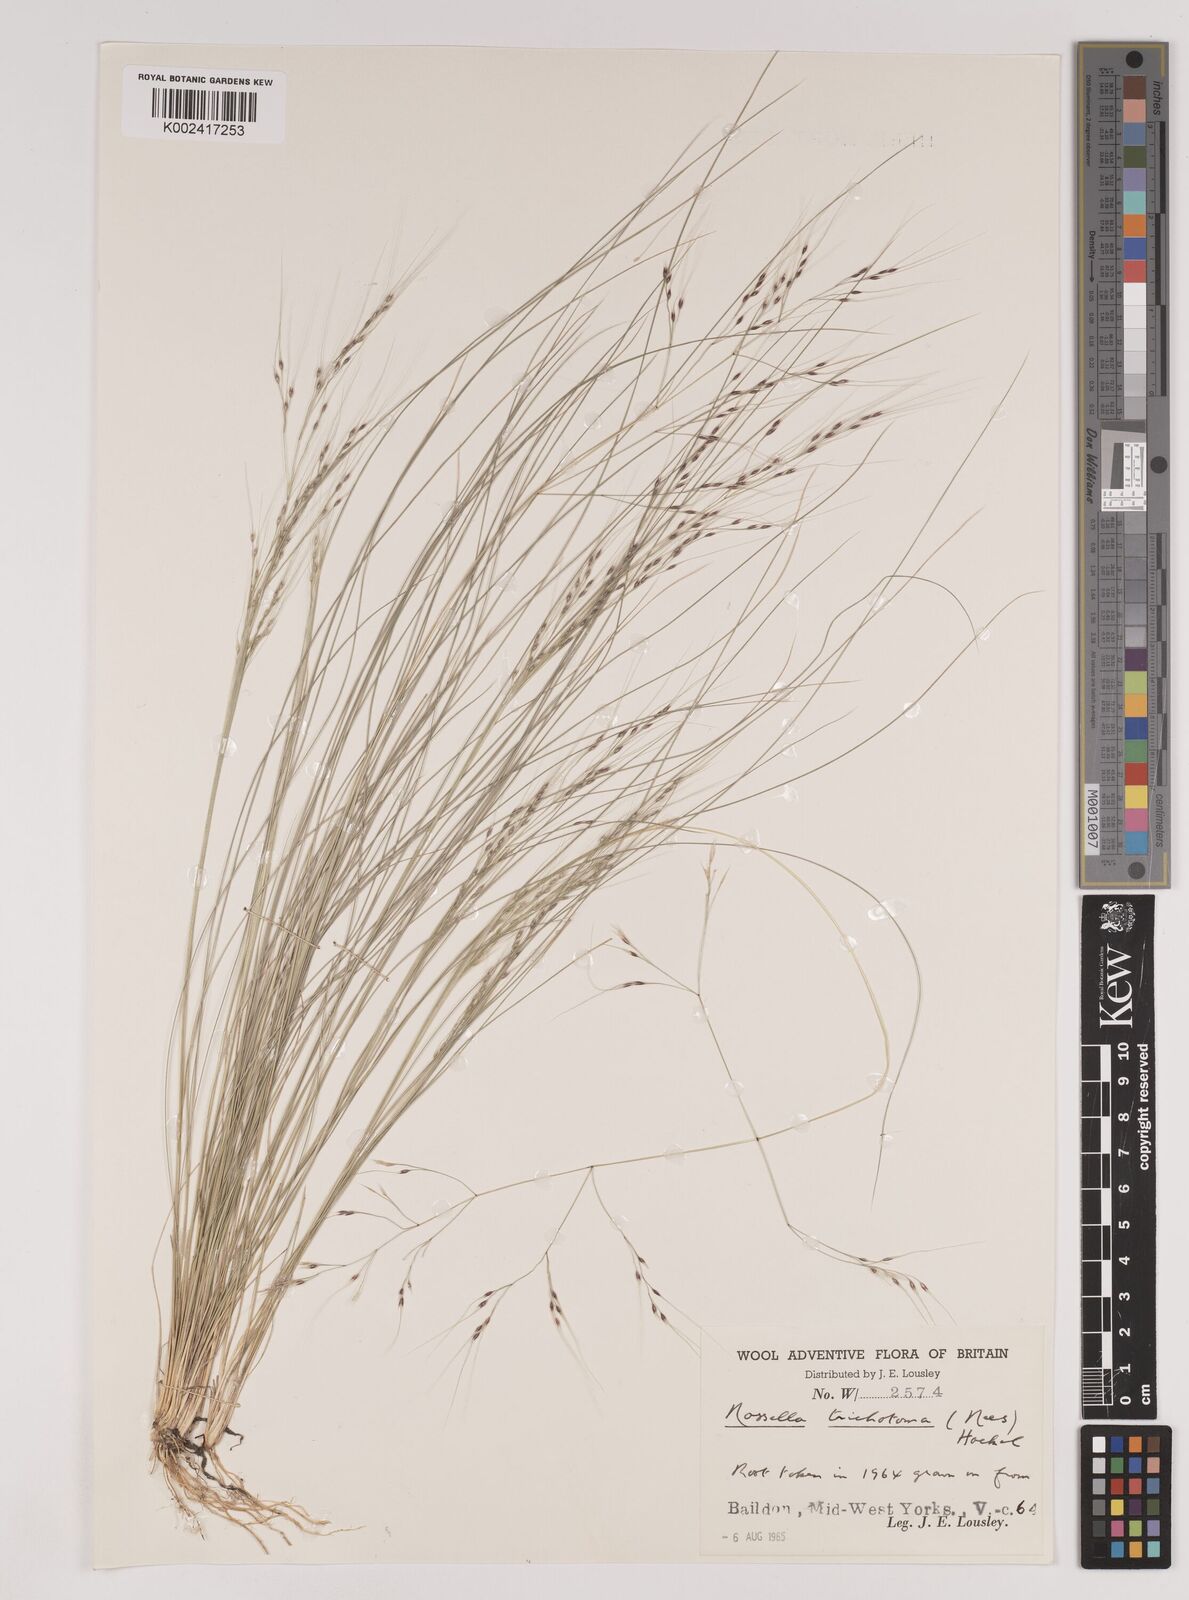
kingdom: Plantae
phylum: Tracheophyta
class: Liliopsida
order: Poales
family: Poaceae
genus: Nassella
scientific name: Nassella trichotoma
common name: Serrated tussock grass
